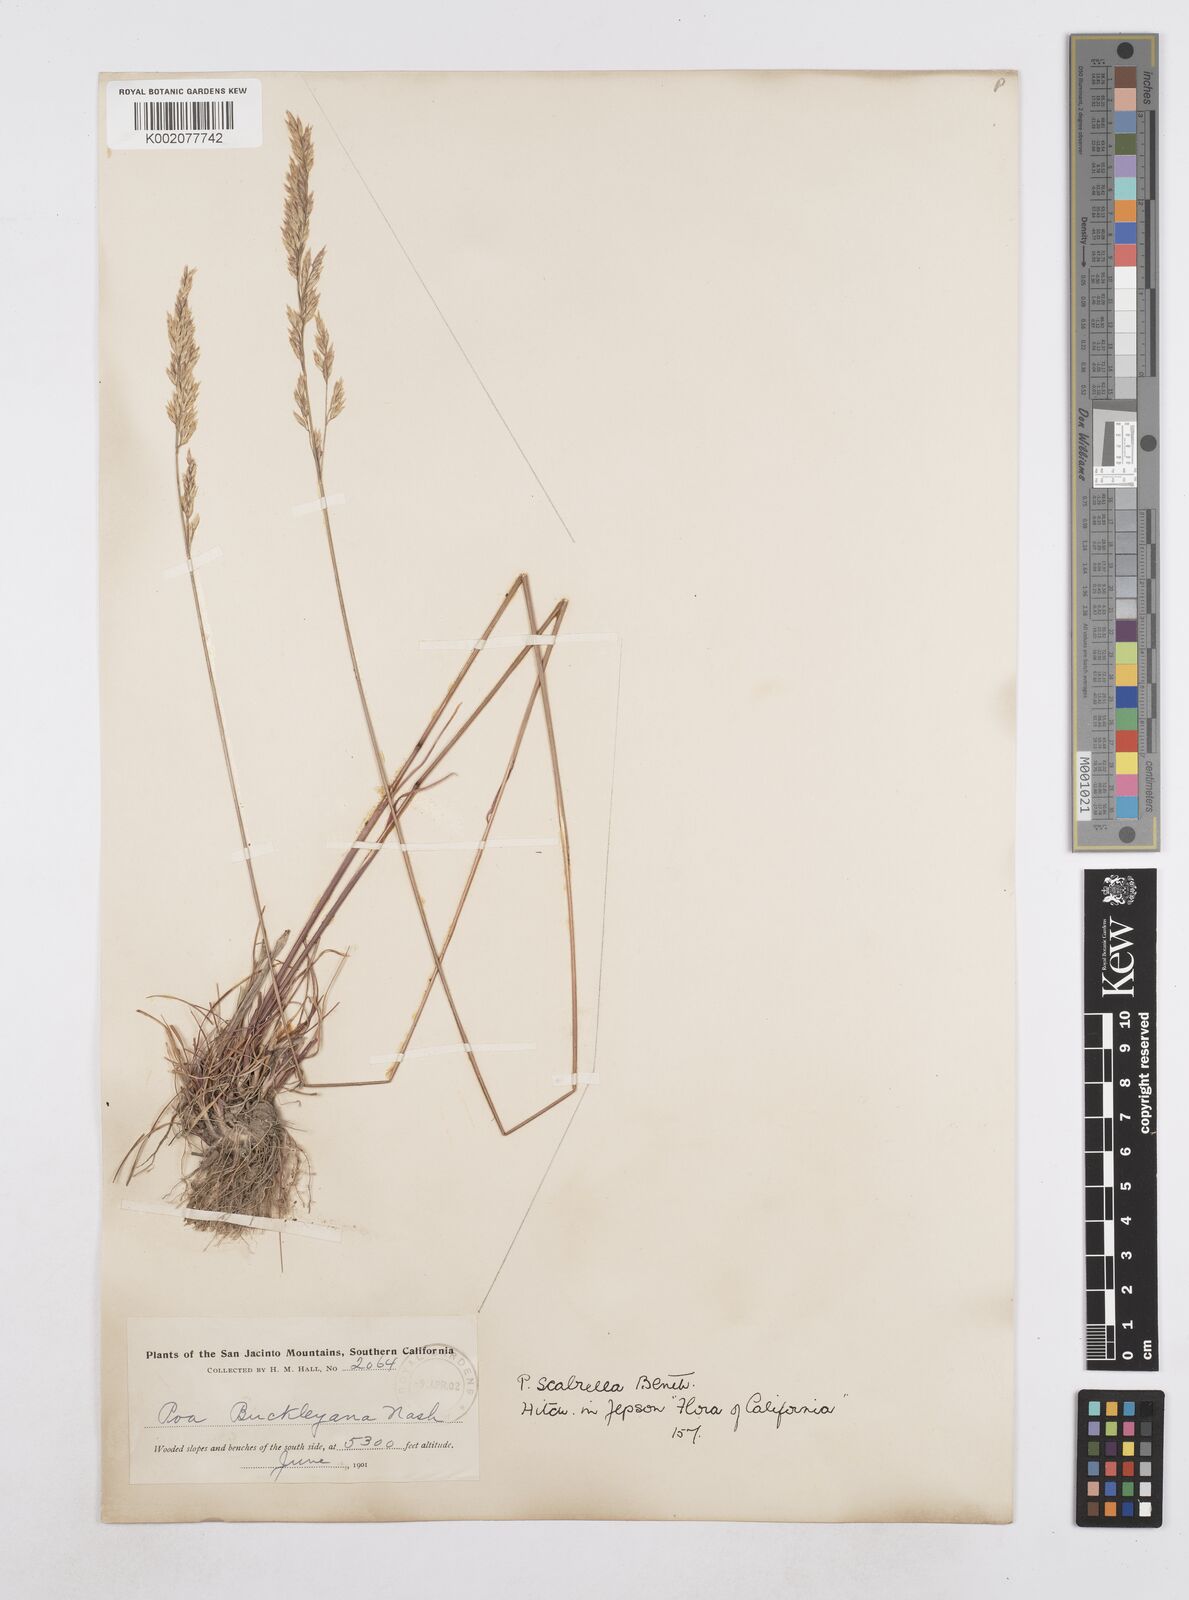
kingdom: Plantae
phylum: Tracheophyta
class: Liliopsida
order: Poales
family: Poaceae
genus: Poa
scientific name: Poa secunda
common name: Sandberg bluegrass
